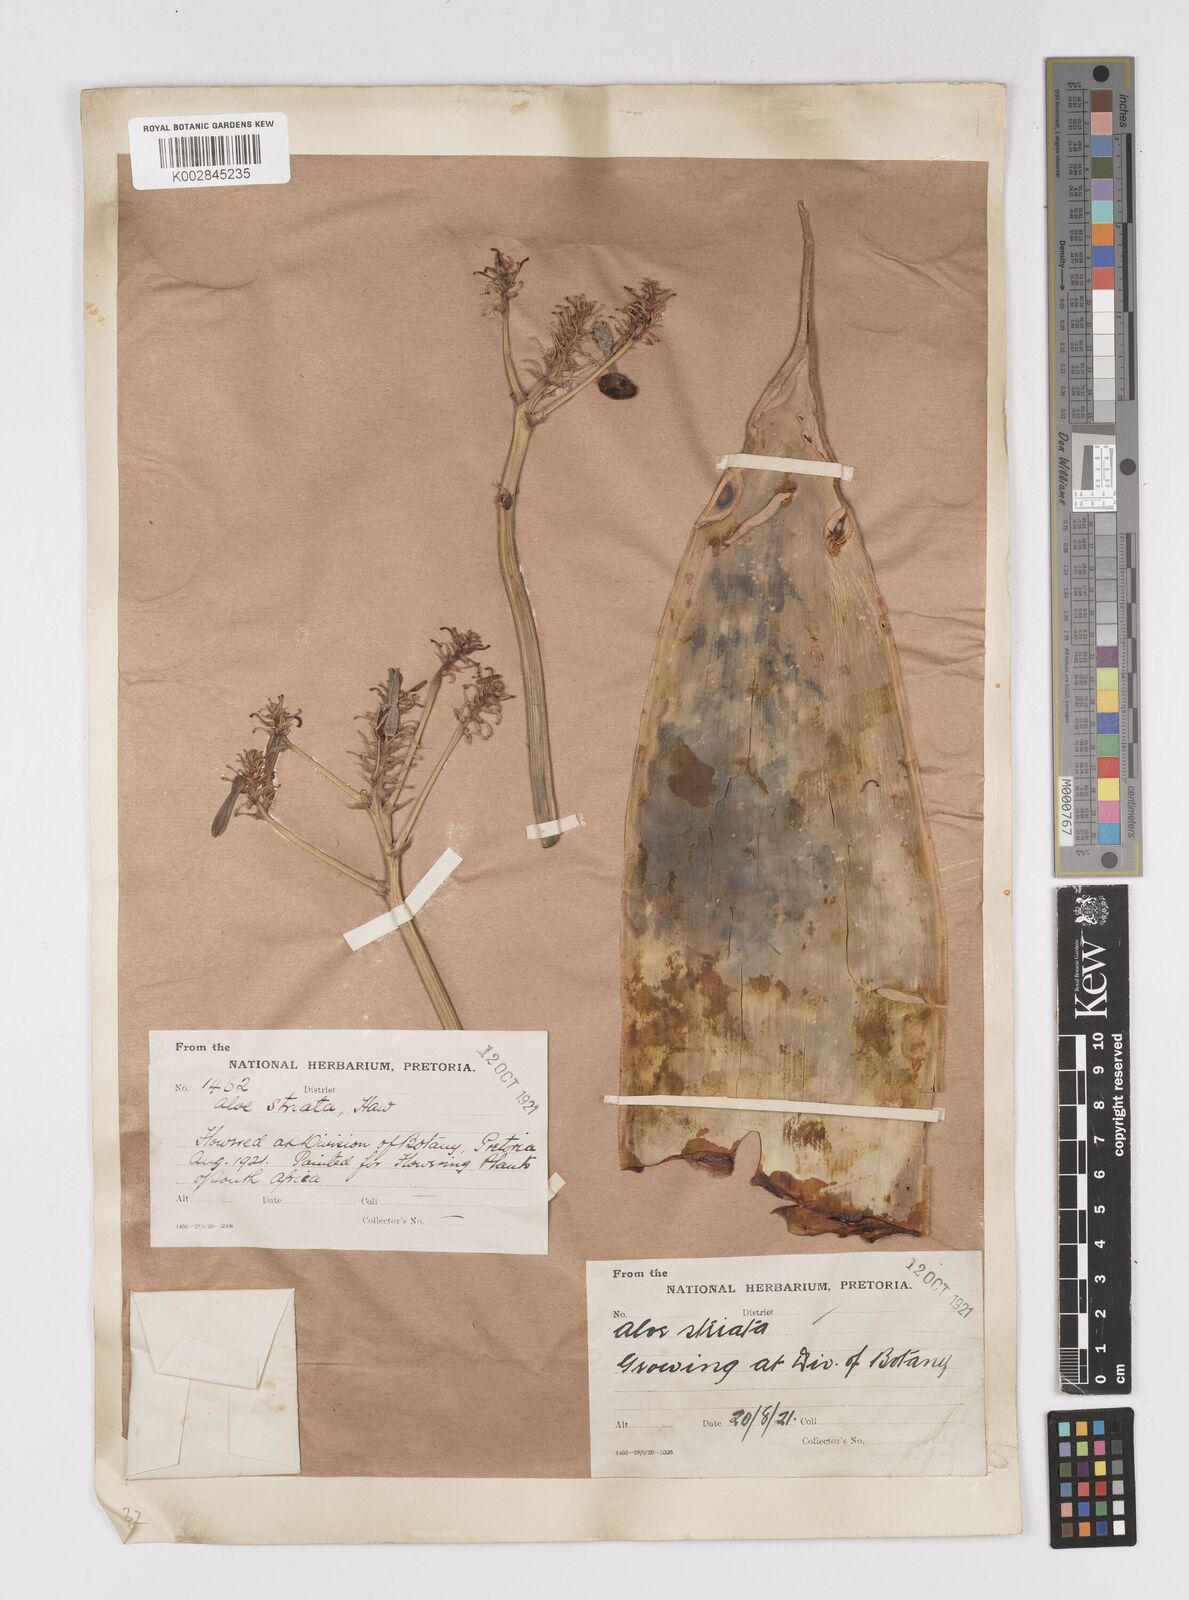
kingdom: Plantae
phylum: Tracheophyta
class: Liliopsida
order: Asparagales
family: Asphodelaceae
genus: Aloe
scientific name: Aloe striata
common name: Coral aloe
